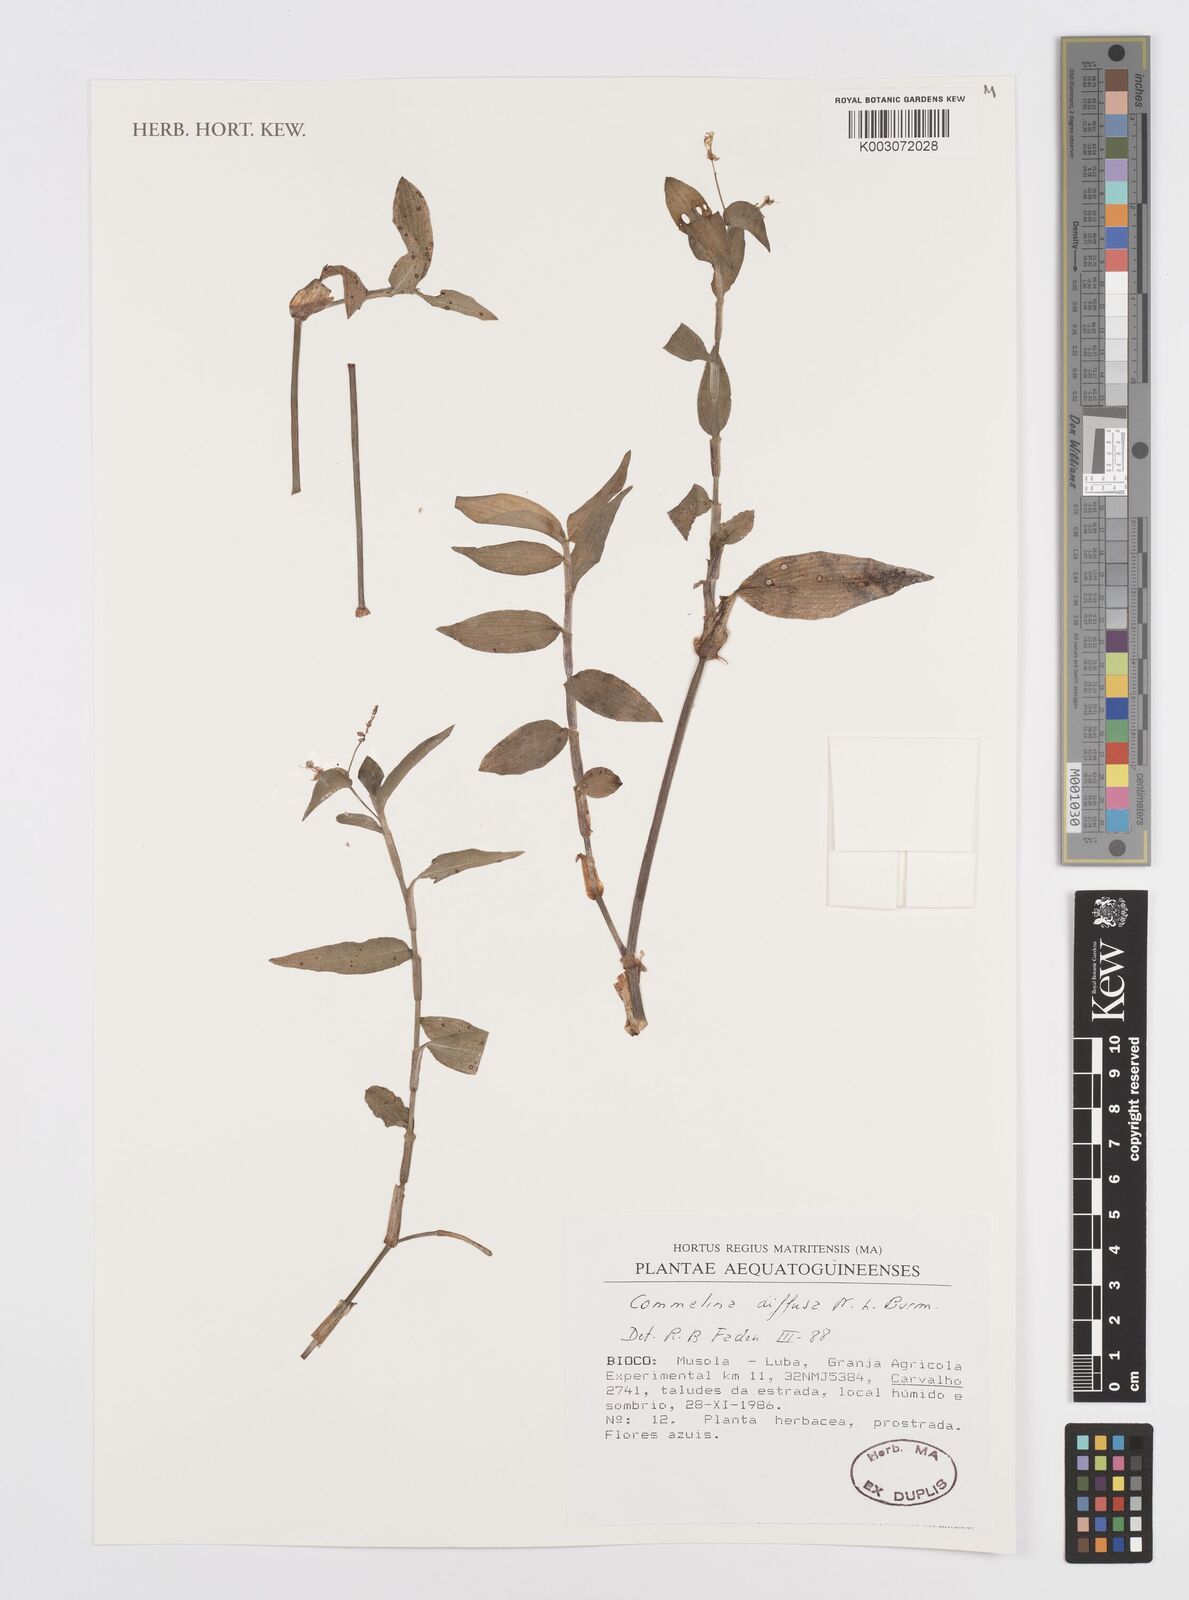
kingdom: Plantae
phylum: Tracheophyta
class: Liliopsida
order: Commelinales
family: Commelinaceae
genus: Commelina
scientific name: Commelina diffusa
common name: Climbing dayflower
